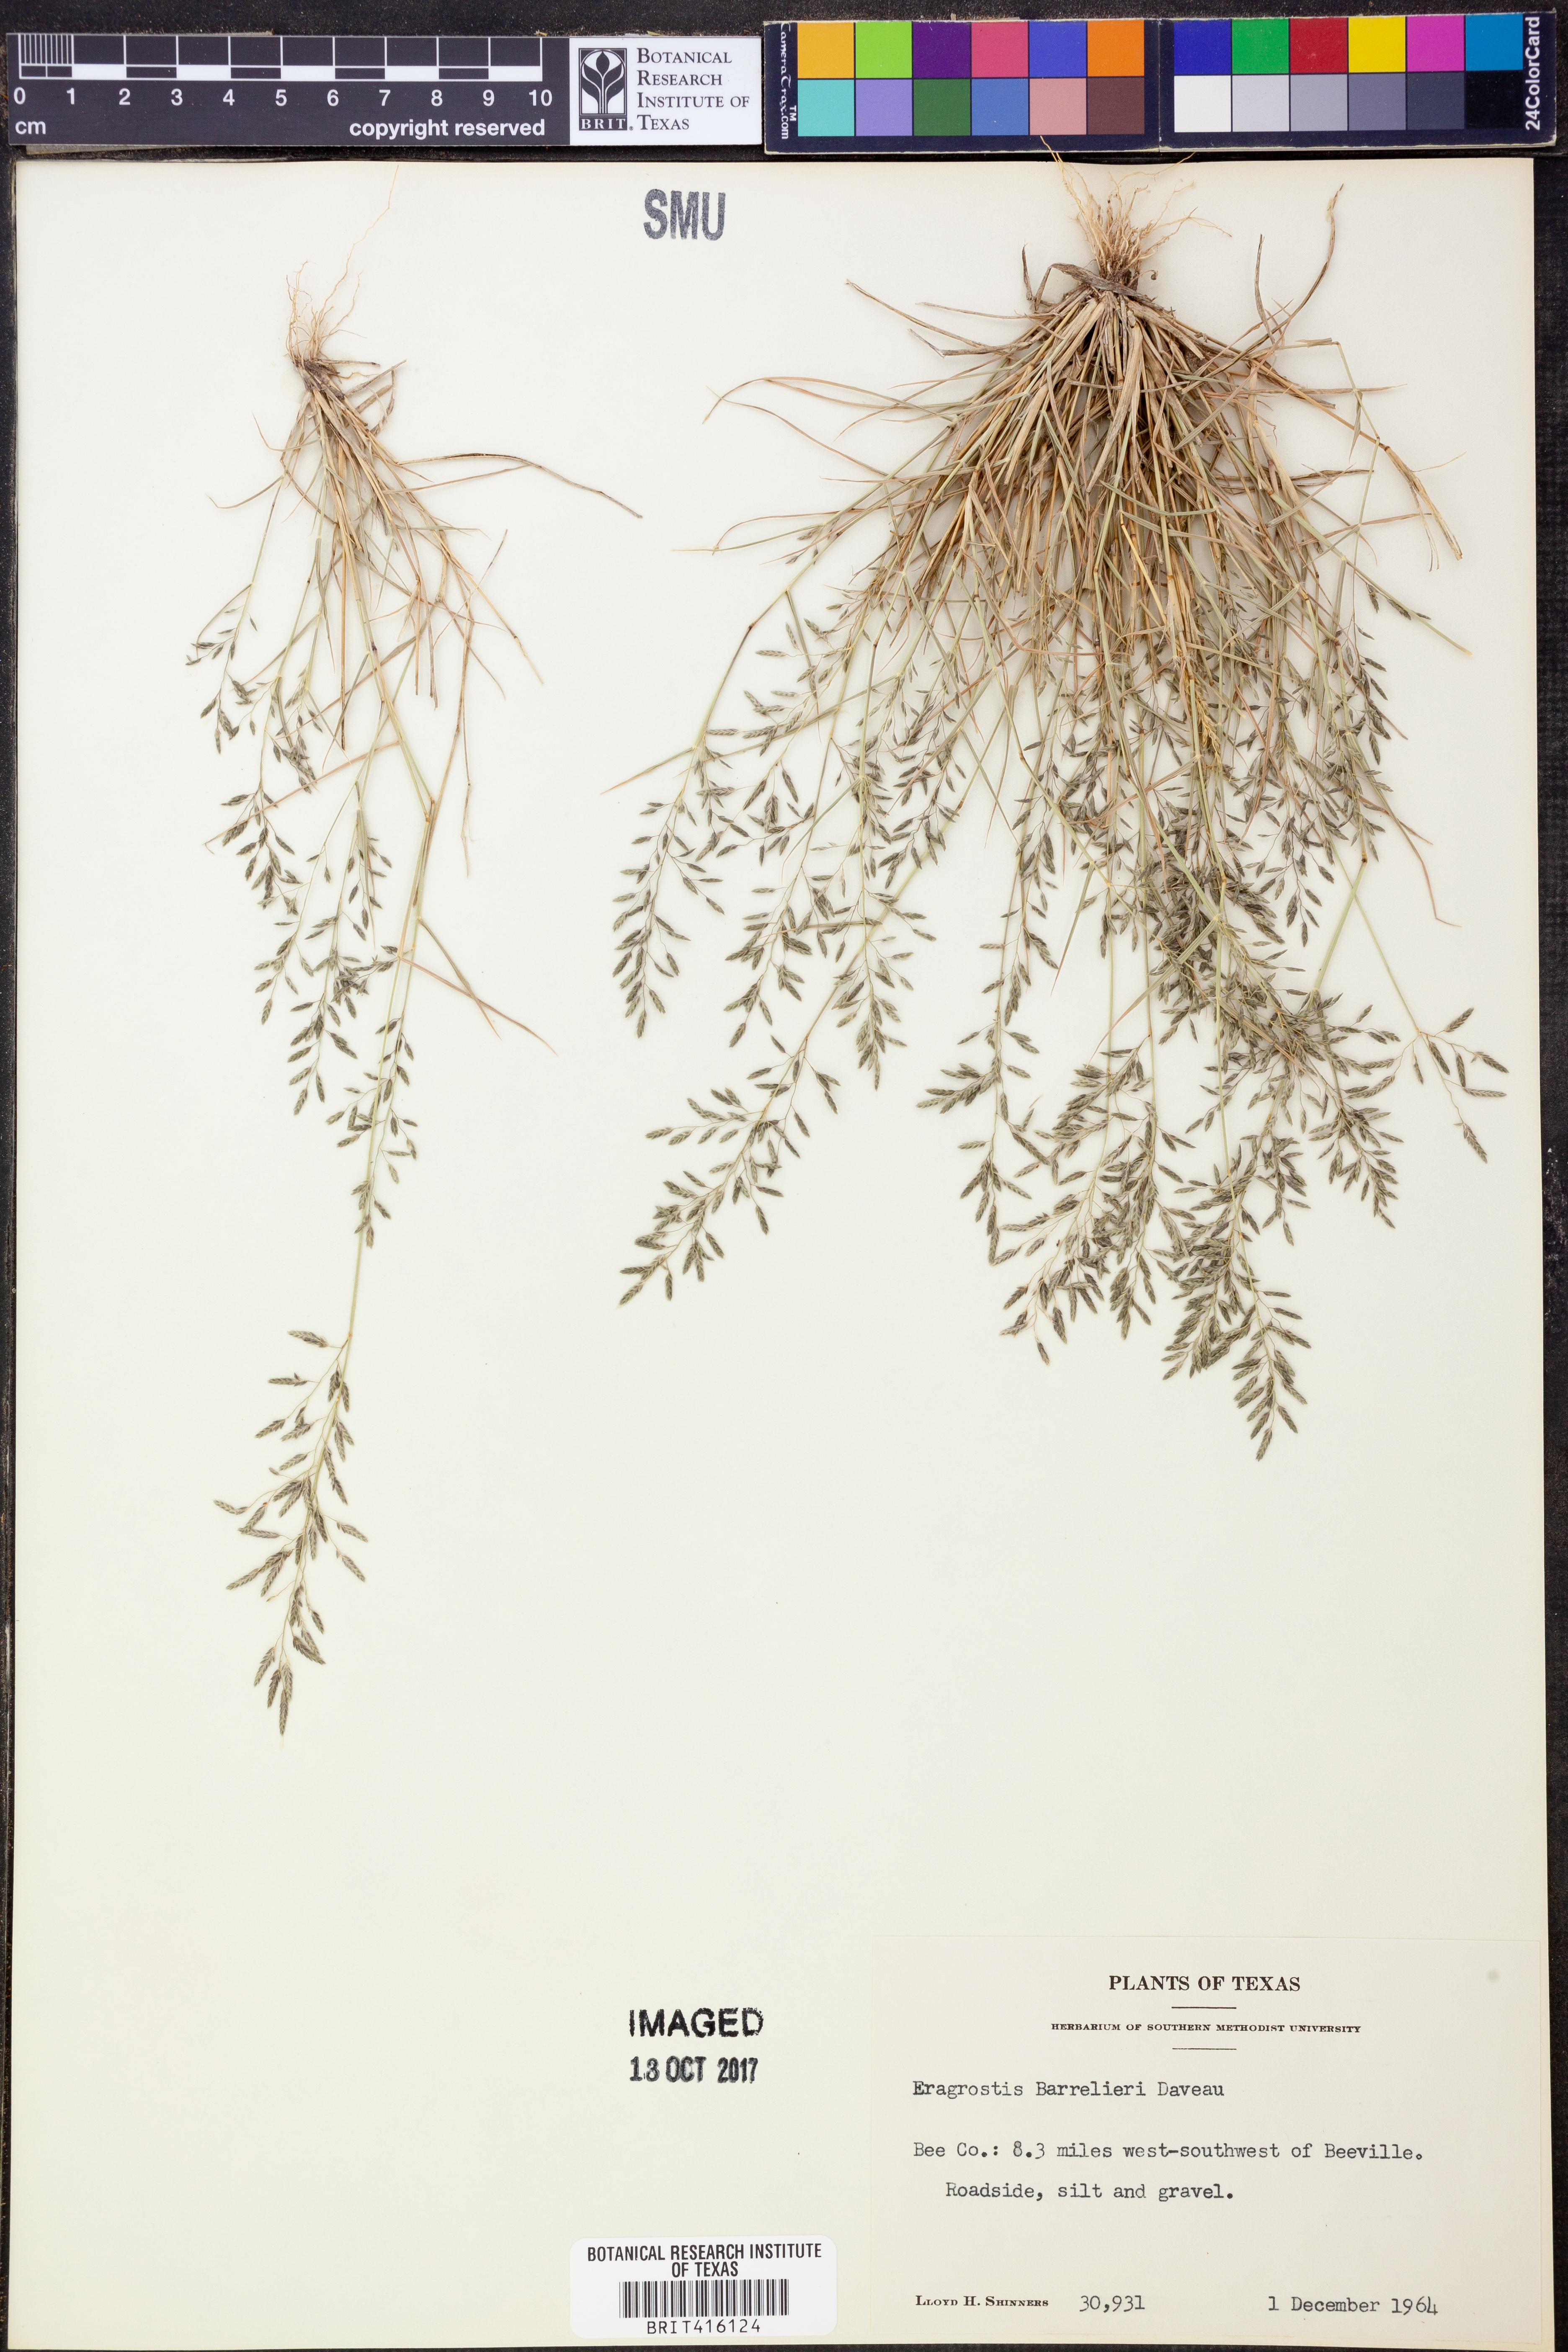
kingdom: Plantae
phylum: Tracheophyta
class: Liliopsida
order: Poales
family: Poaceae
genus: Eragrostis
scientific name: Eragrostis barrelieri
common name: Mediterranean lovegrass
